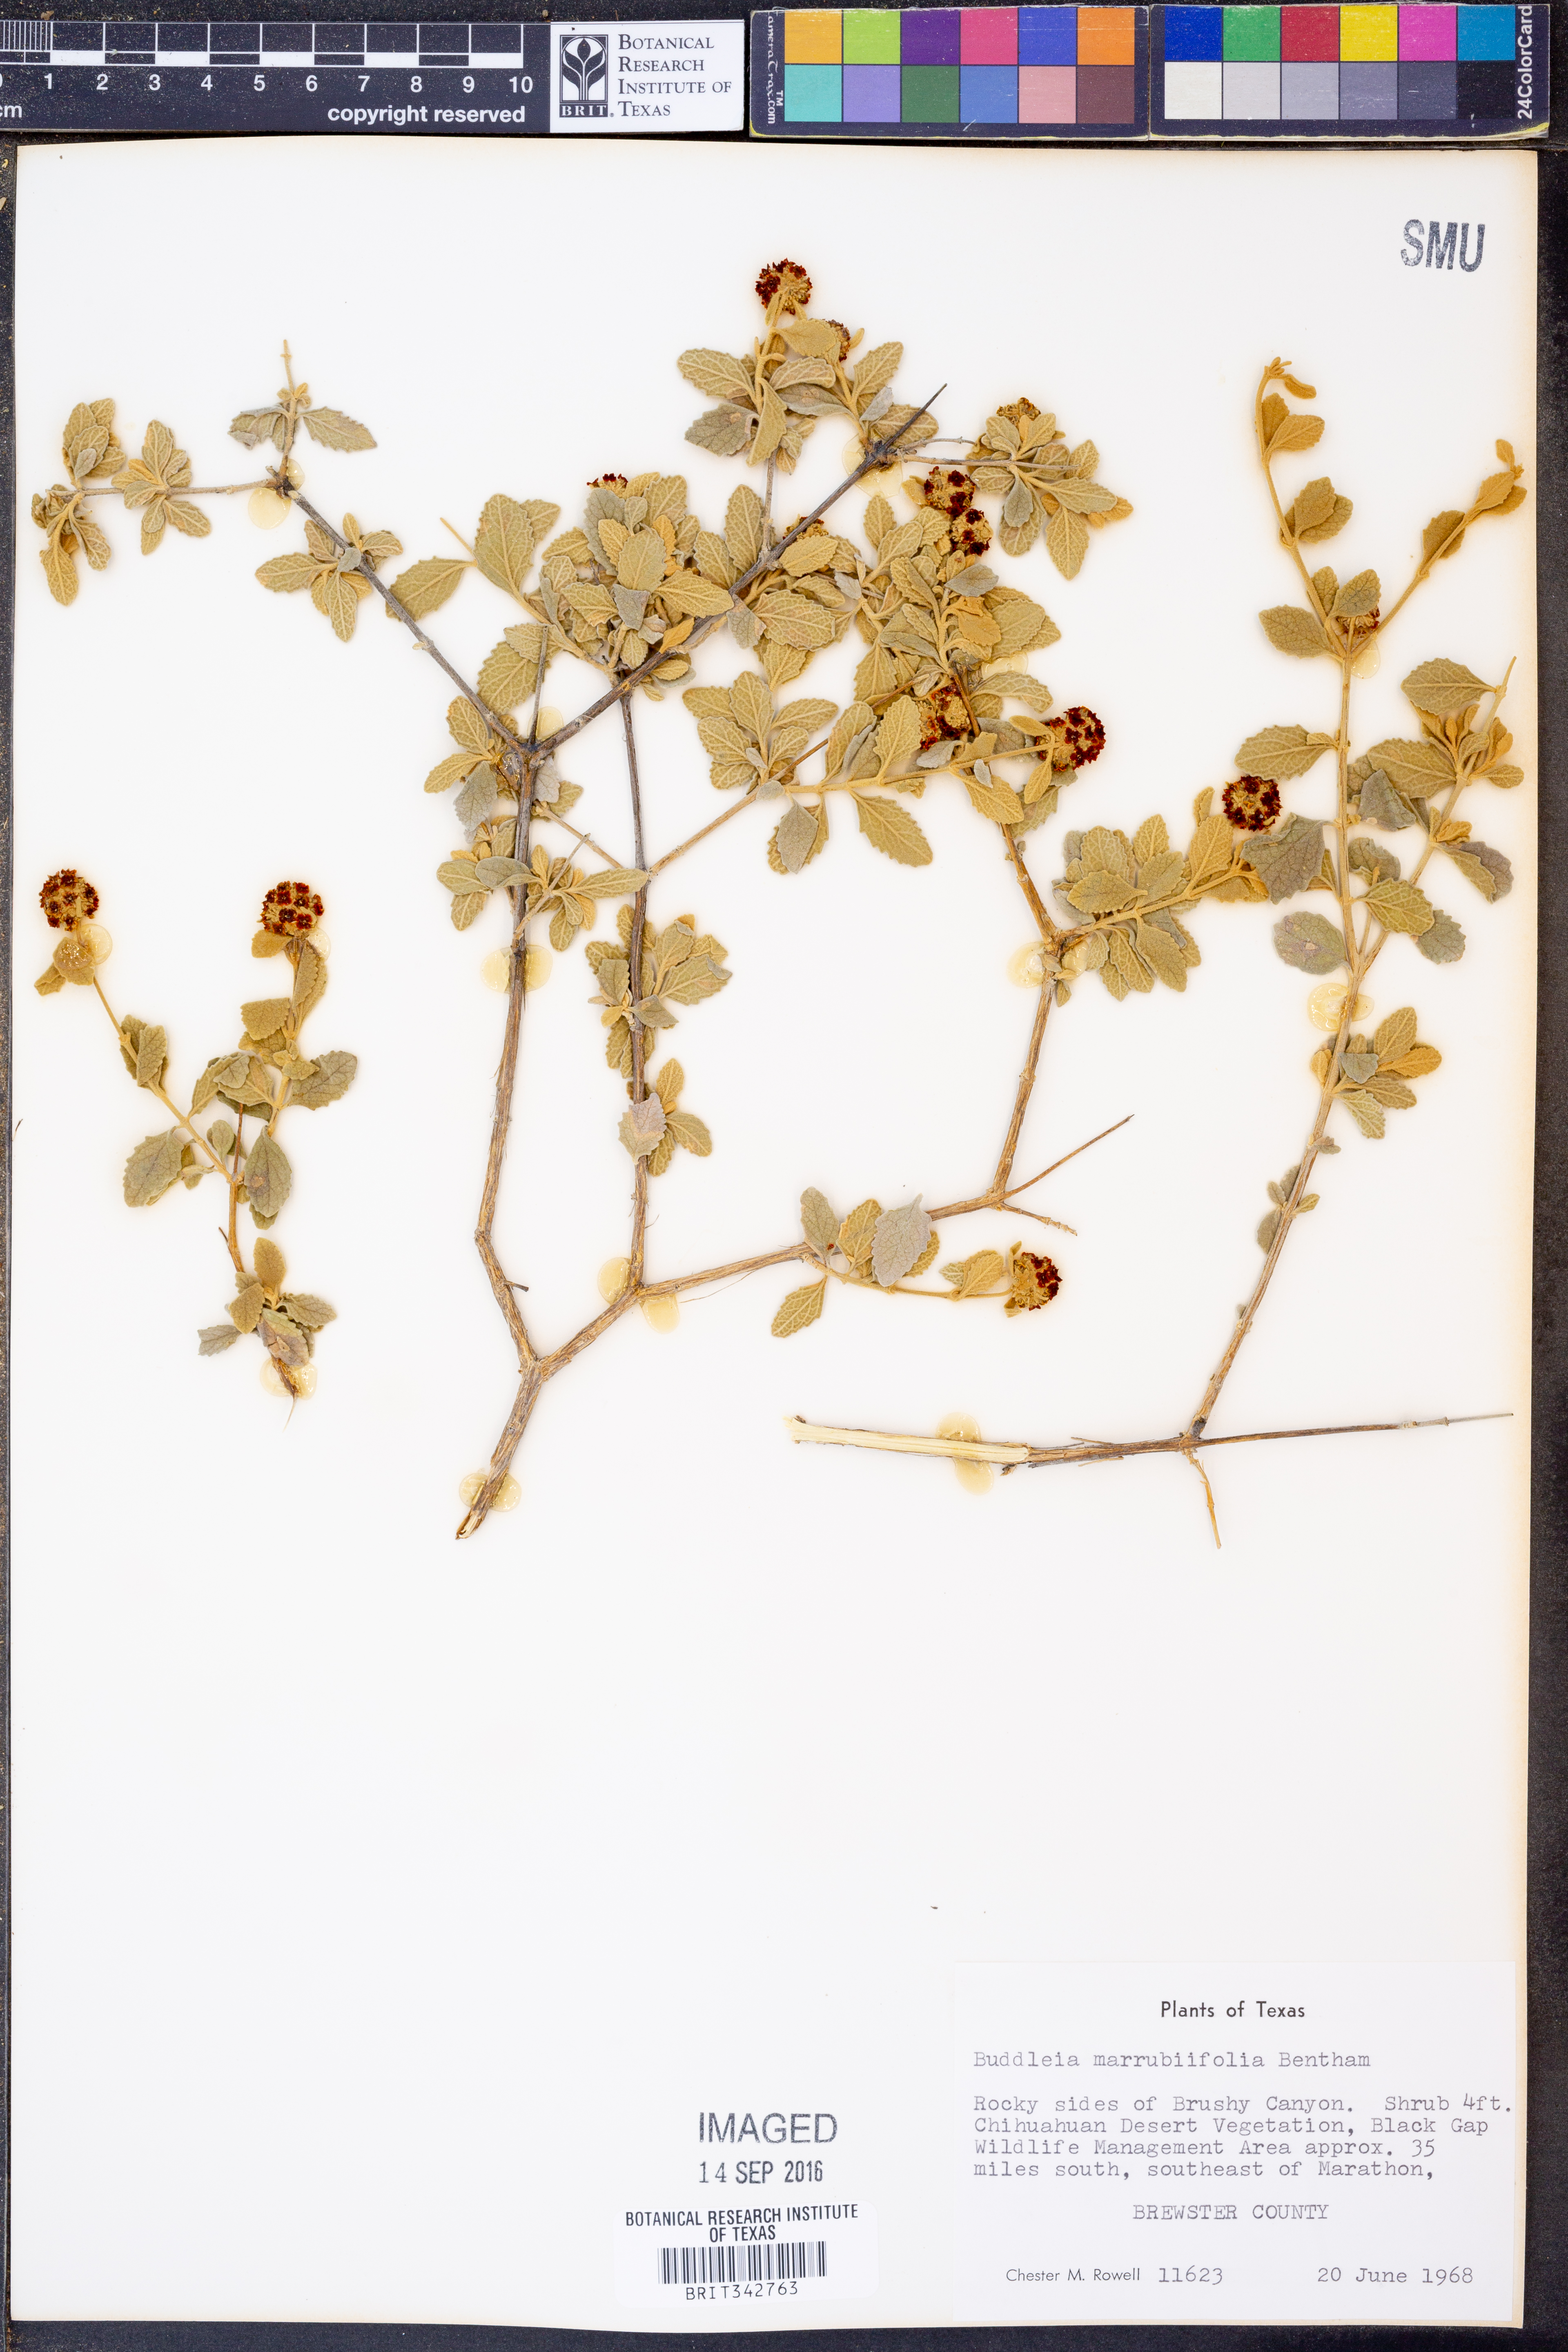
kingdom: Plantae
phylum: Tracheophyta
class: Magnoliopsida
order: Lamiales
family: Scrophulariaceae
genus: Buddleja
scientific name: Buddleja marrubiifolia
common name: Woolly butterfly-bush
